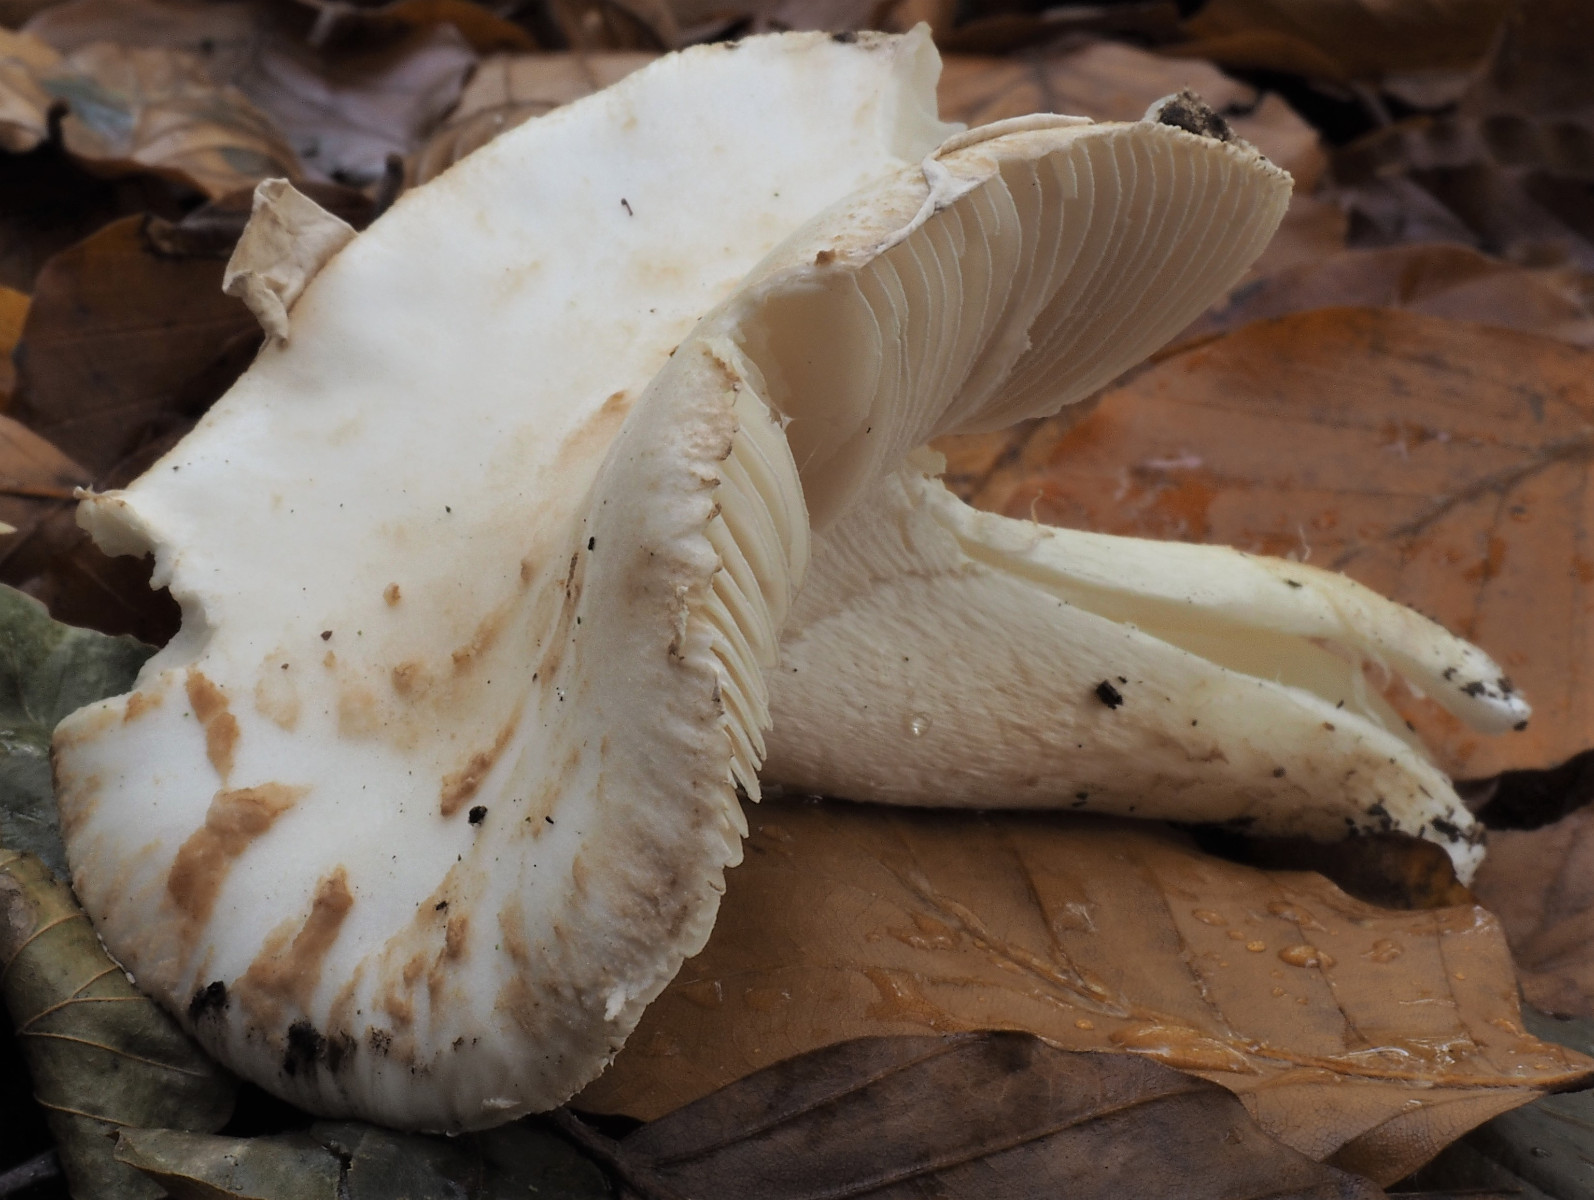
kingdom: Fungi
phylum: Basidiomycota
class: Agaricomycetes
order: Agaricales
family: Amanitaceae
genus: Amanita
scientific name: Amanita citrina
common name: False death-cap
